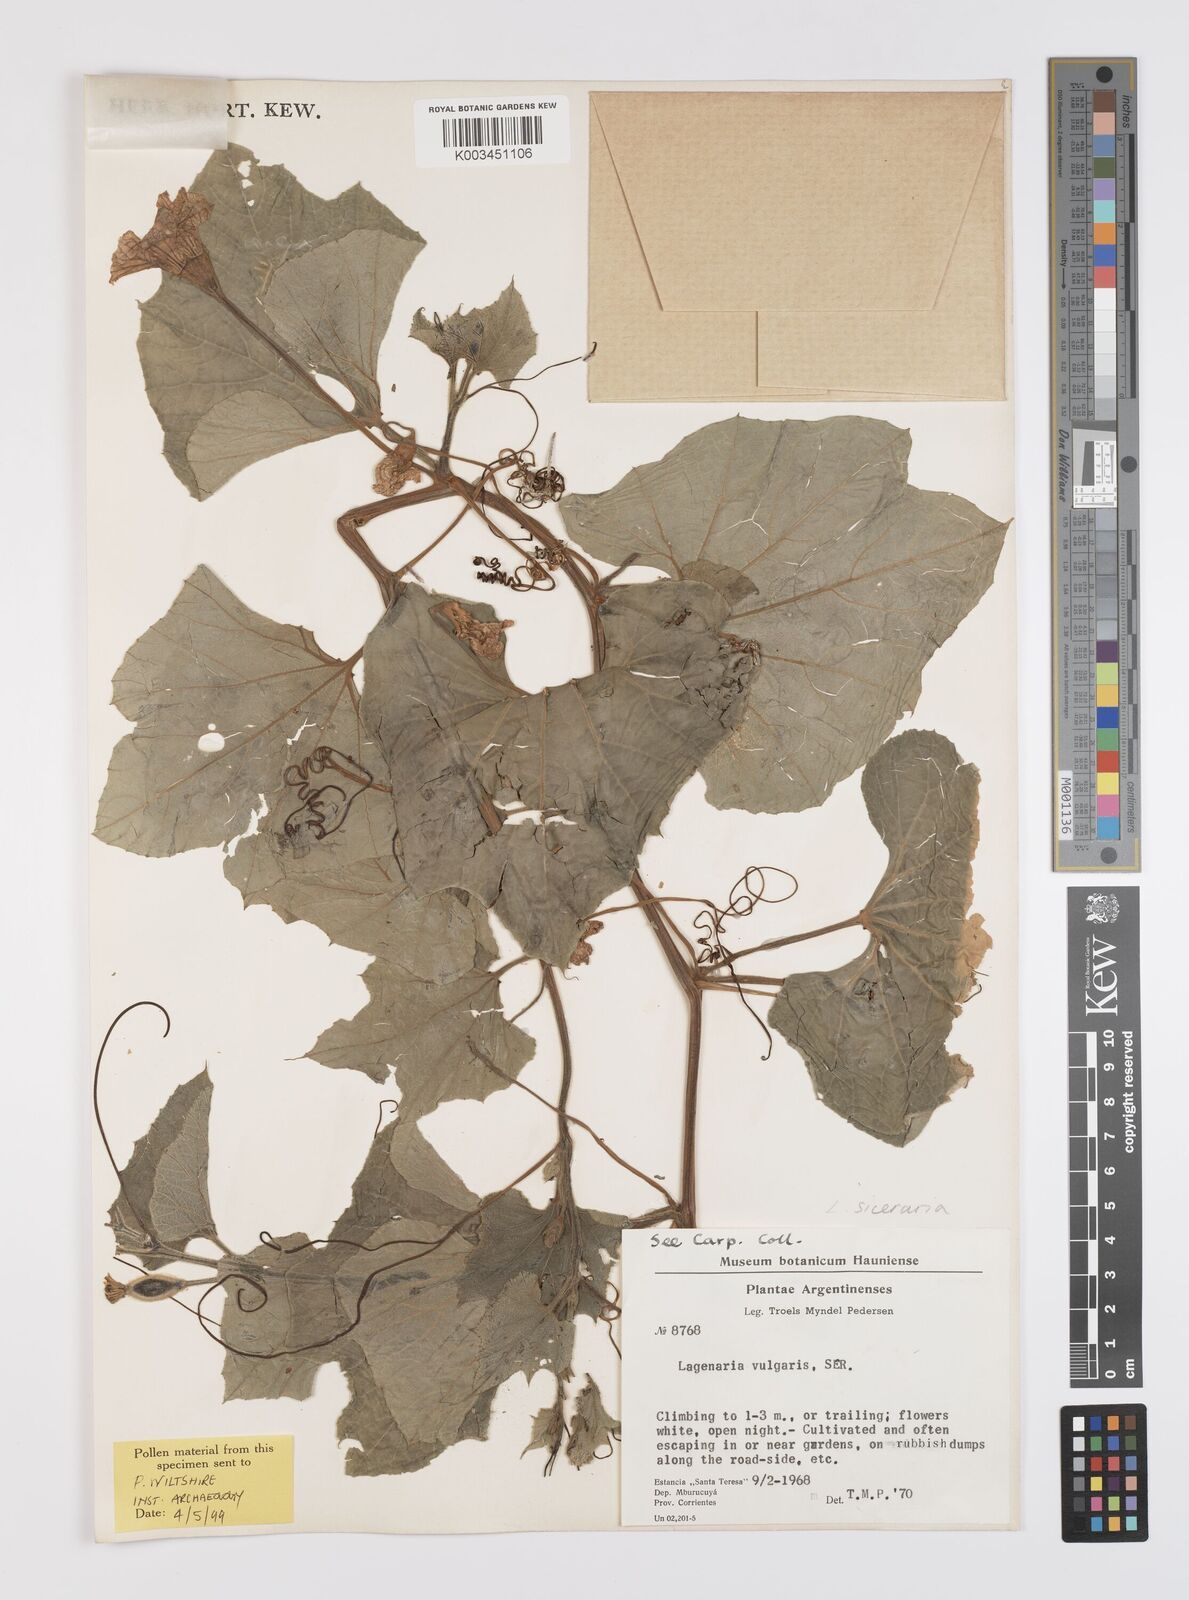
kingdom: Plantae
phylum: Tracheophyta
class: Magnoliopsida
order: Cucurbitales
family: Cucurbitaceae
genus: Lagenaria
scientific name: Lagenaria siceraria
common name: Bottle gourd
